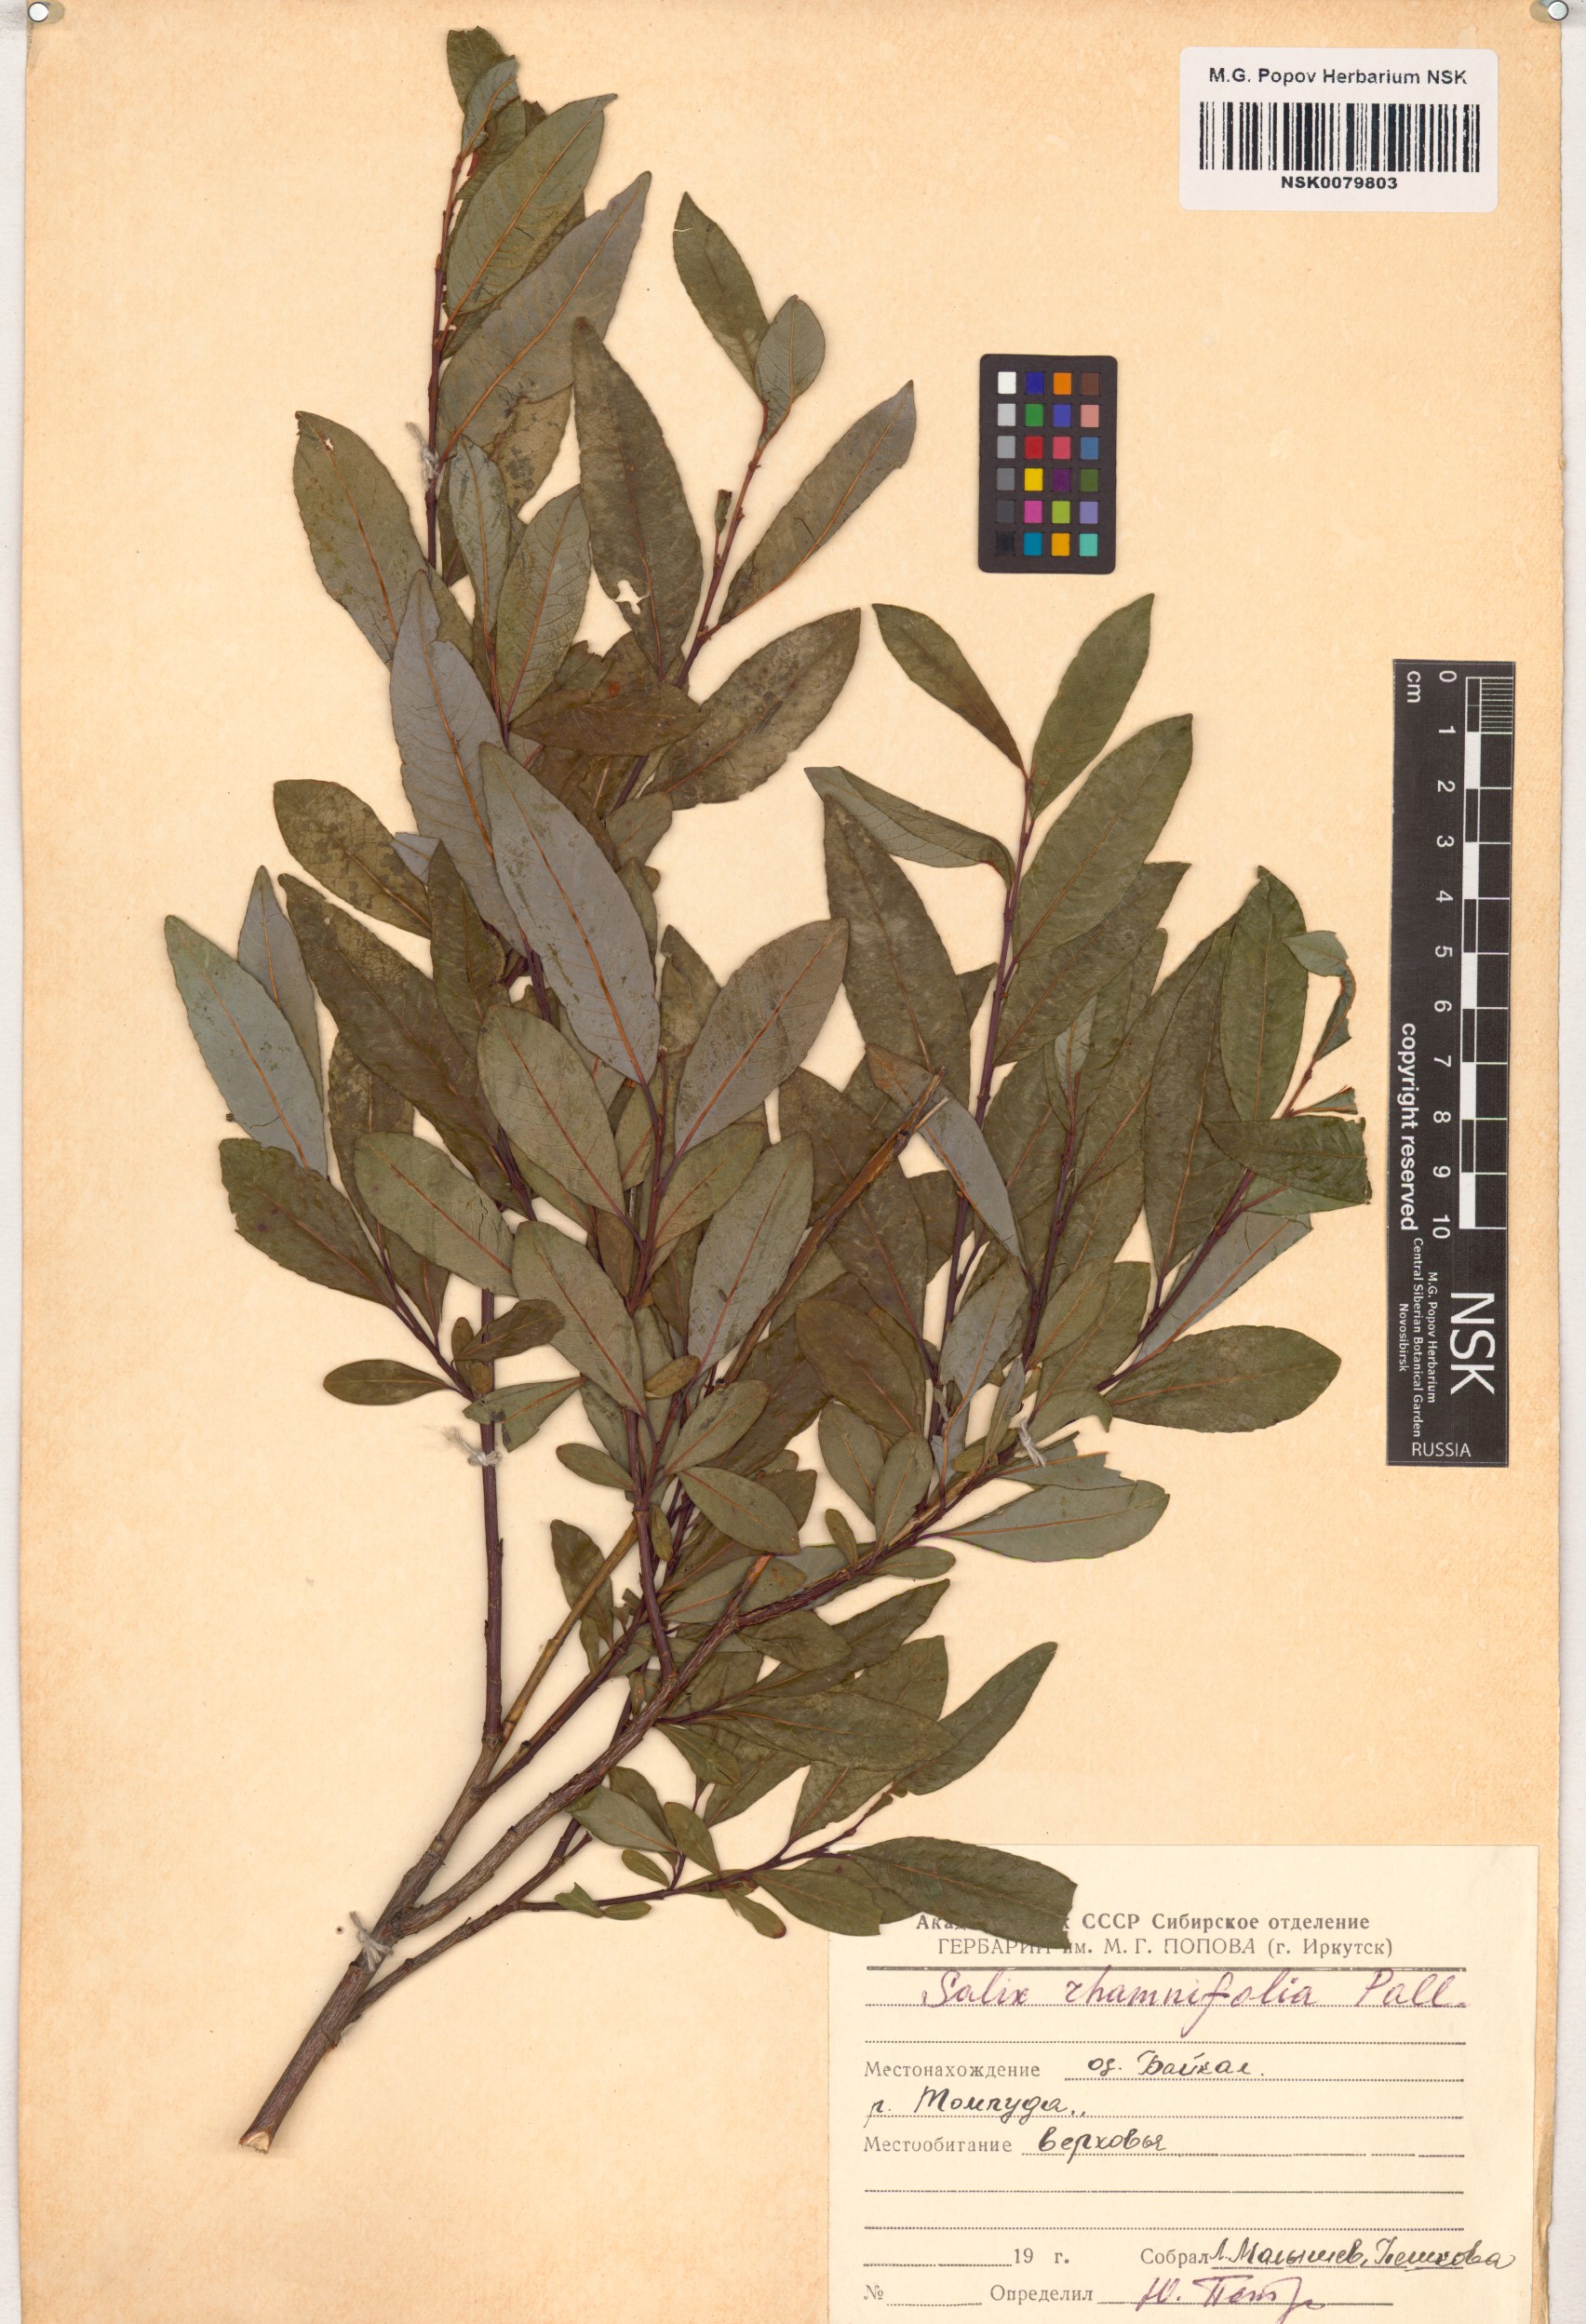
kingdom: Plantae
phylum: Tracheophyta
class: Magnoliopsida
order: Malpighiales
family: Salicaceae
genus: Salix
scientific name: Salix rhamnifolia
